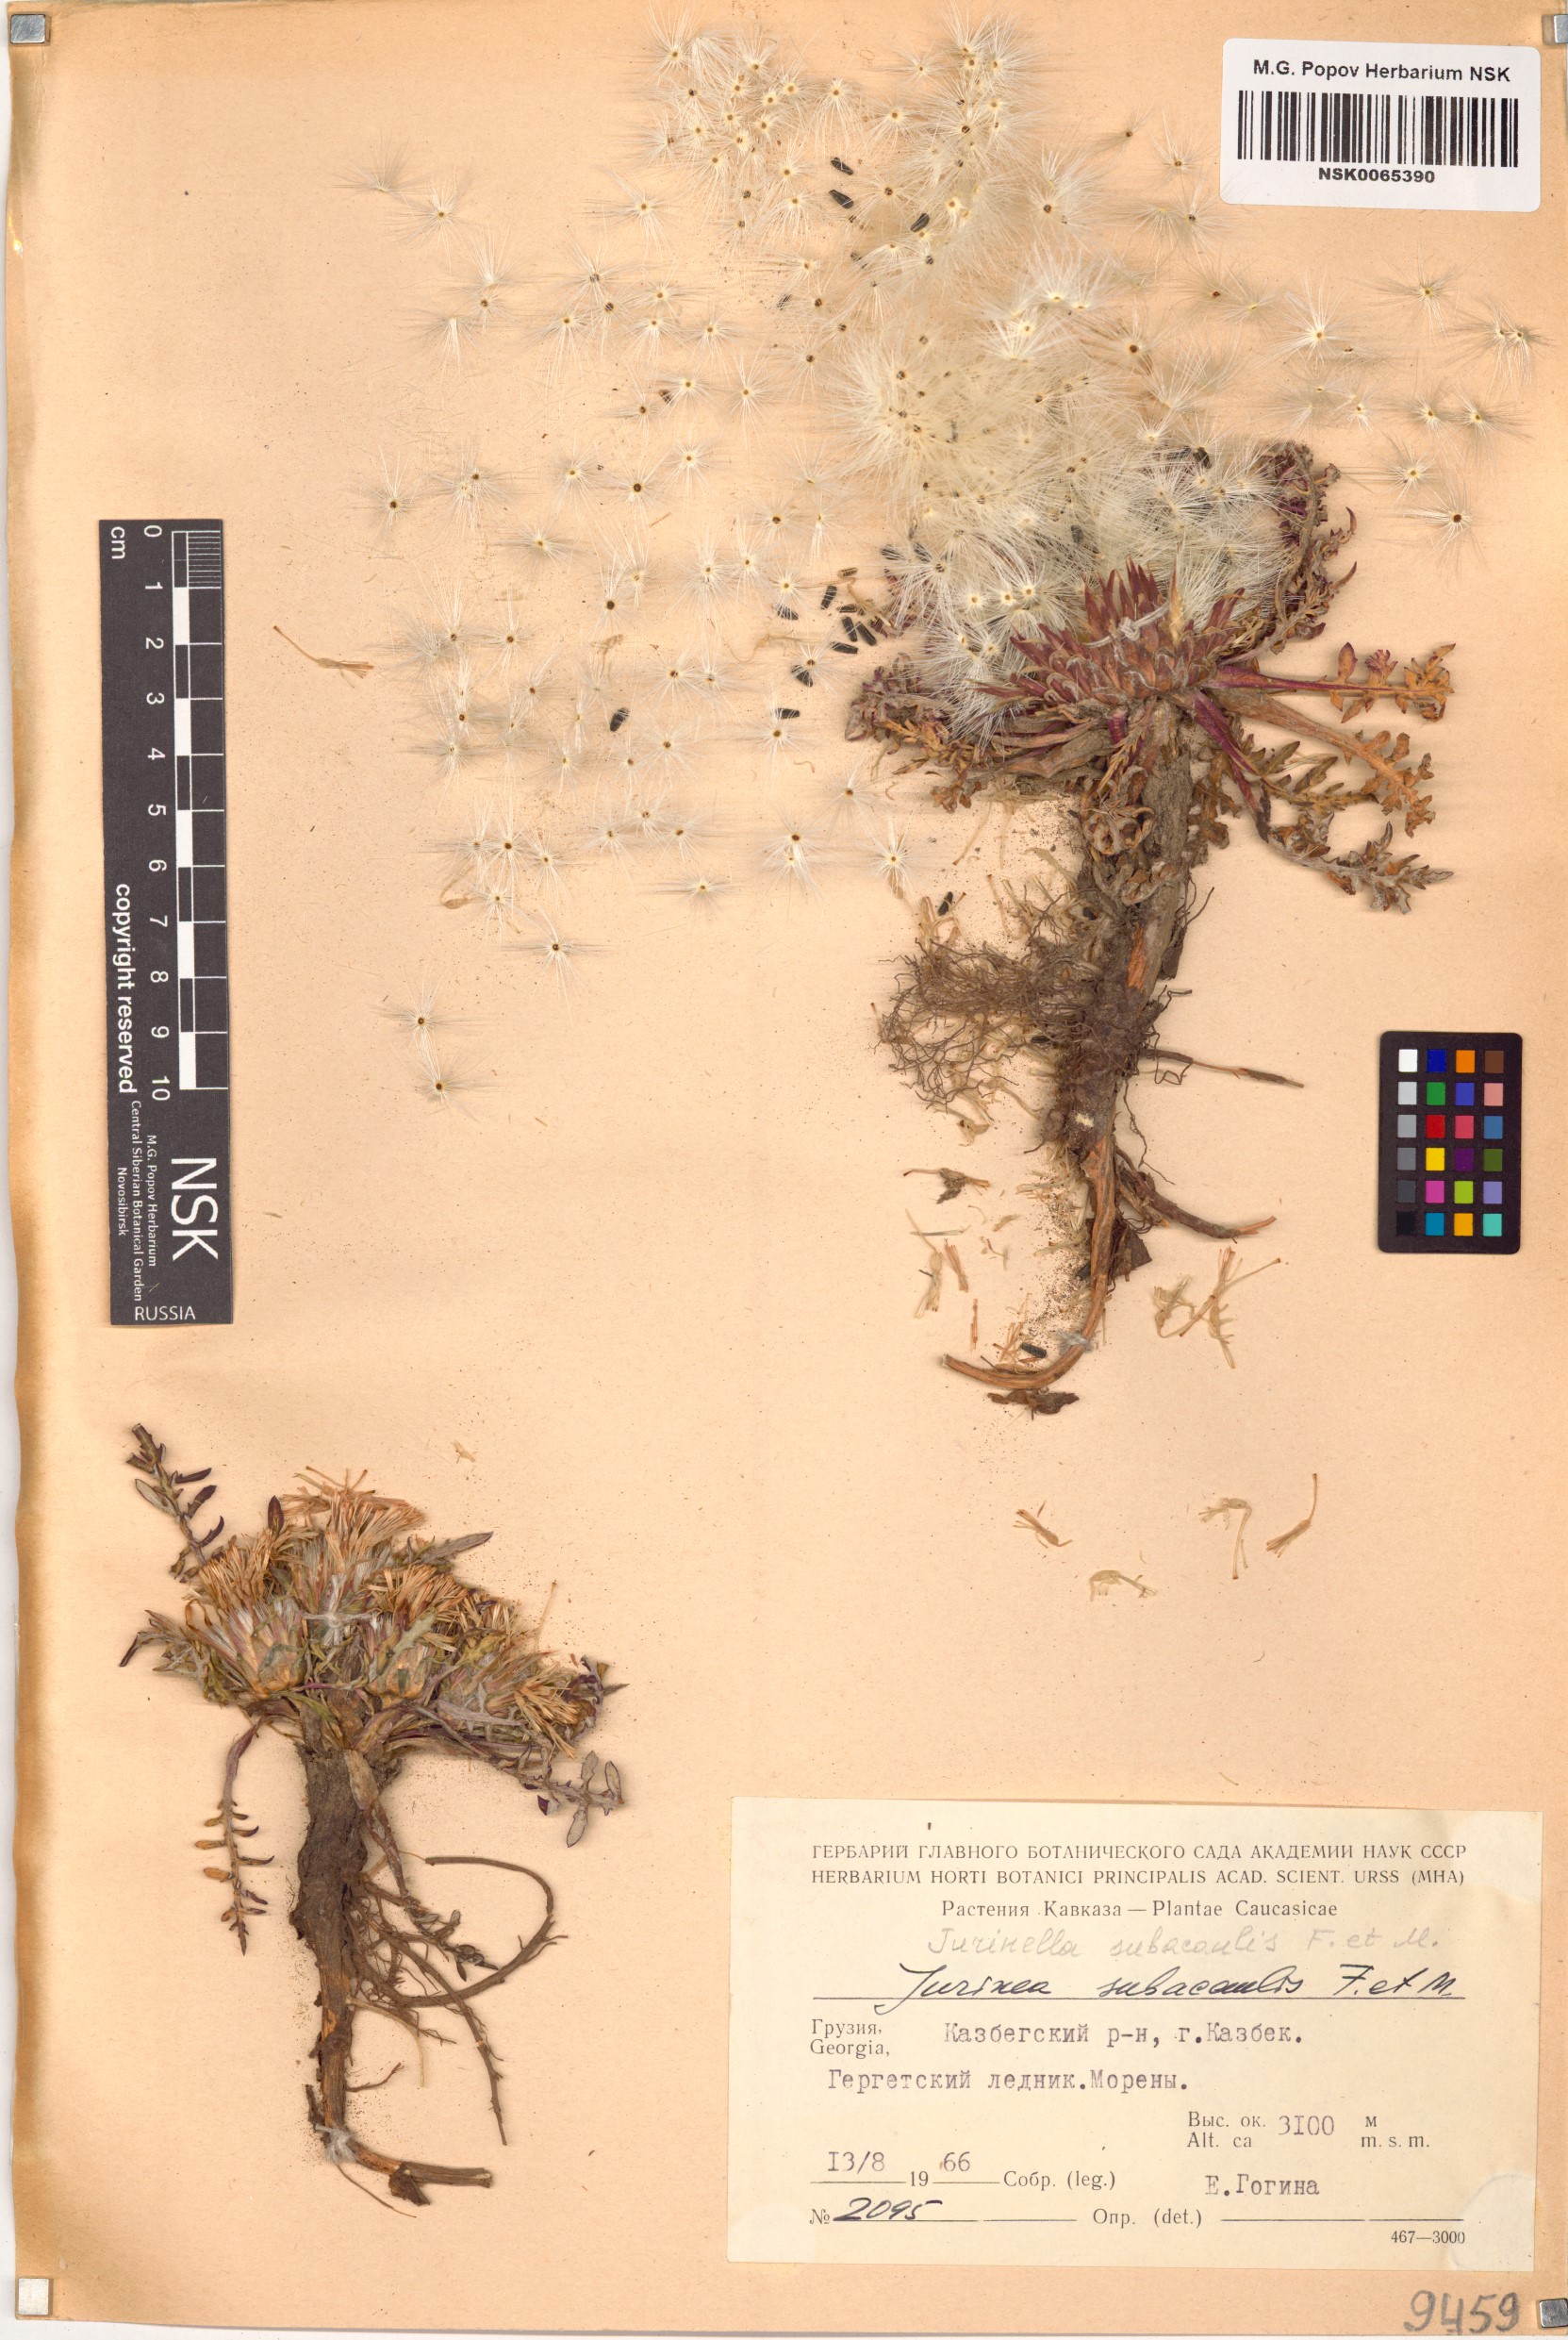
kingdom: Plantae
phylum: Tracheophyta
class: Magnoliopsida
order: Asterales
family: Asteraceae
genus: Jurinea
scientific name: Jurinea moschus
